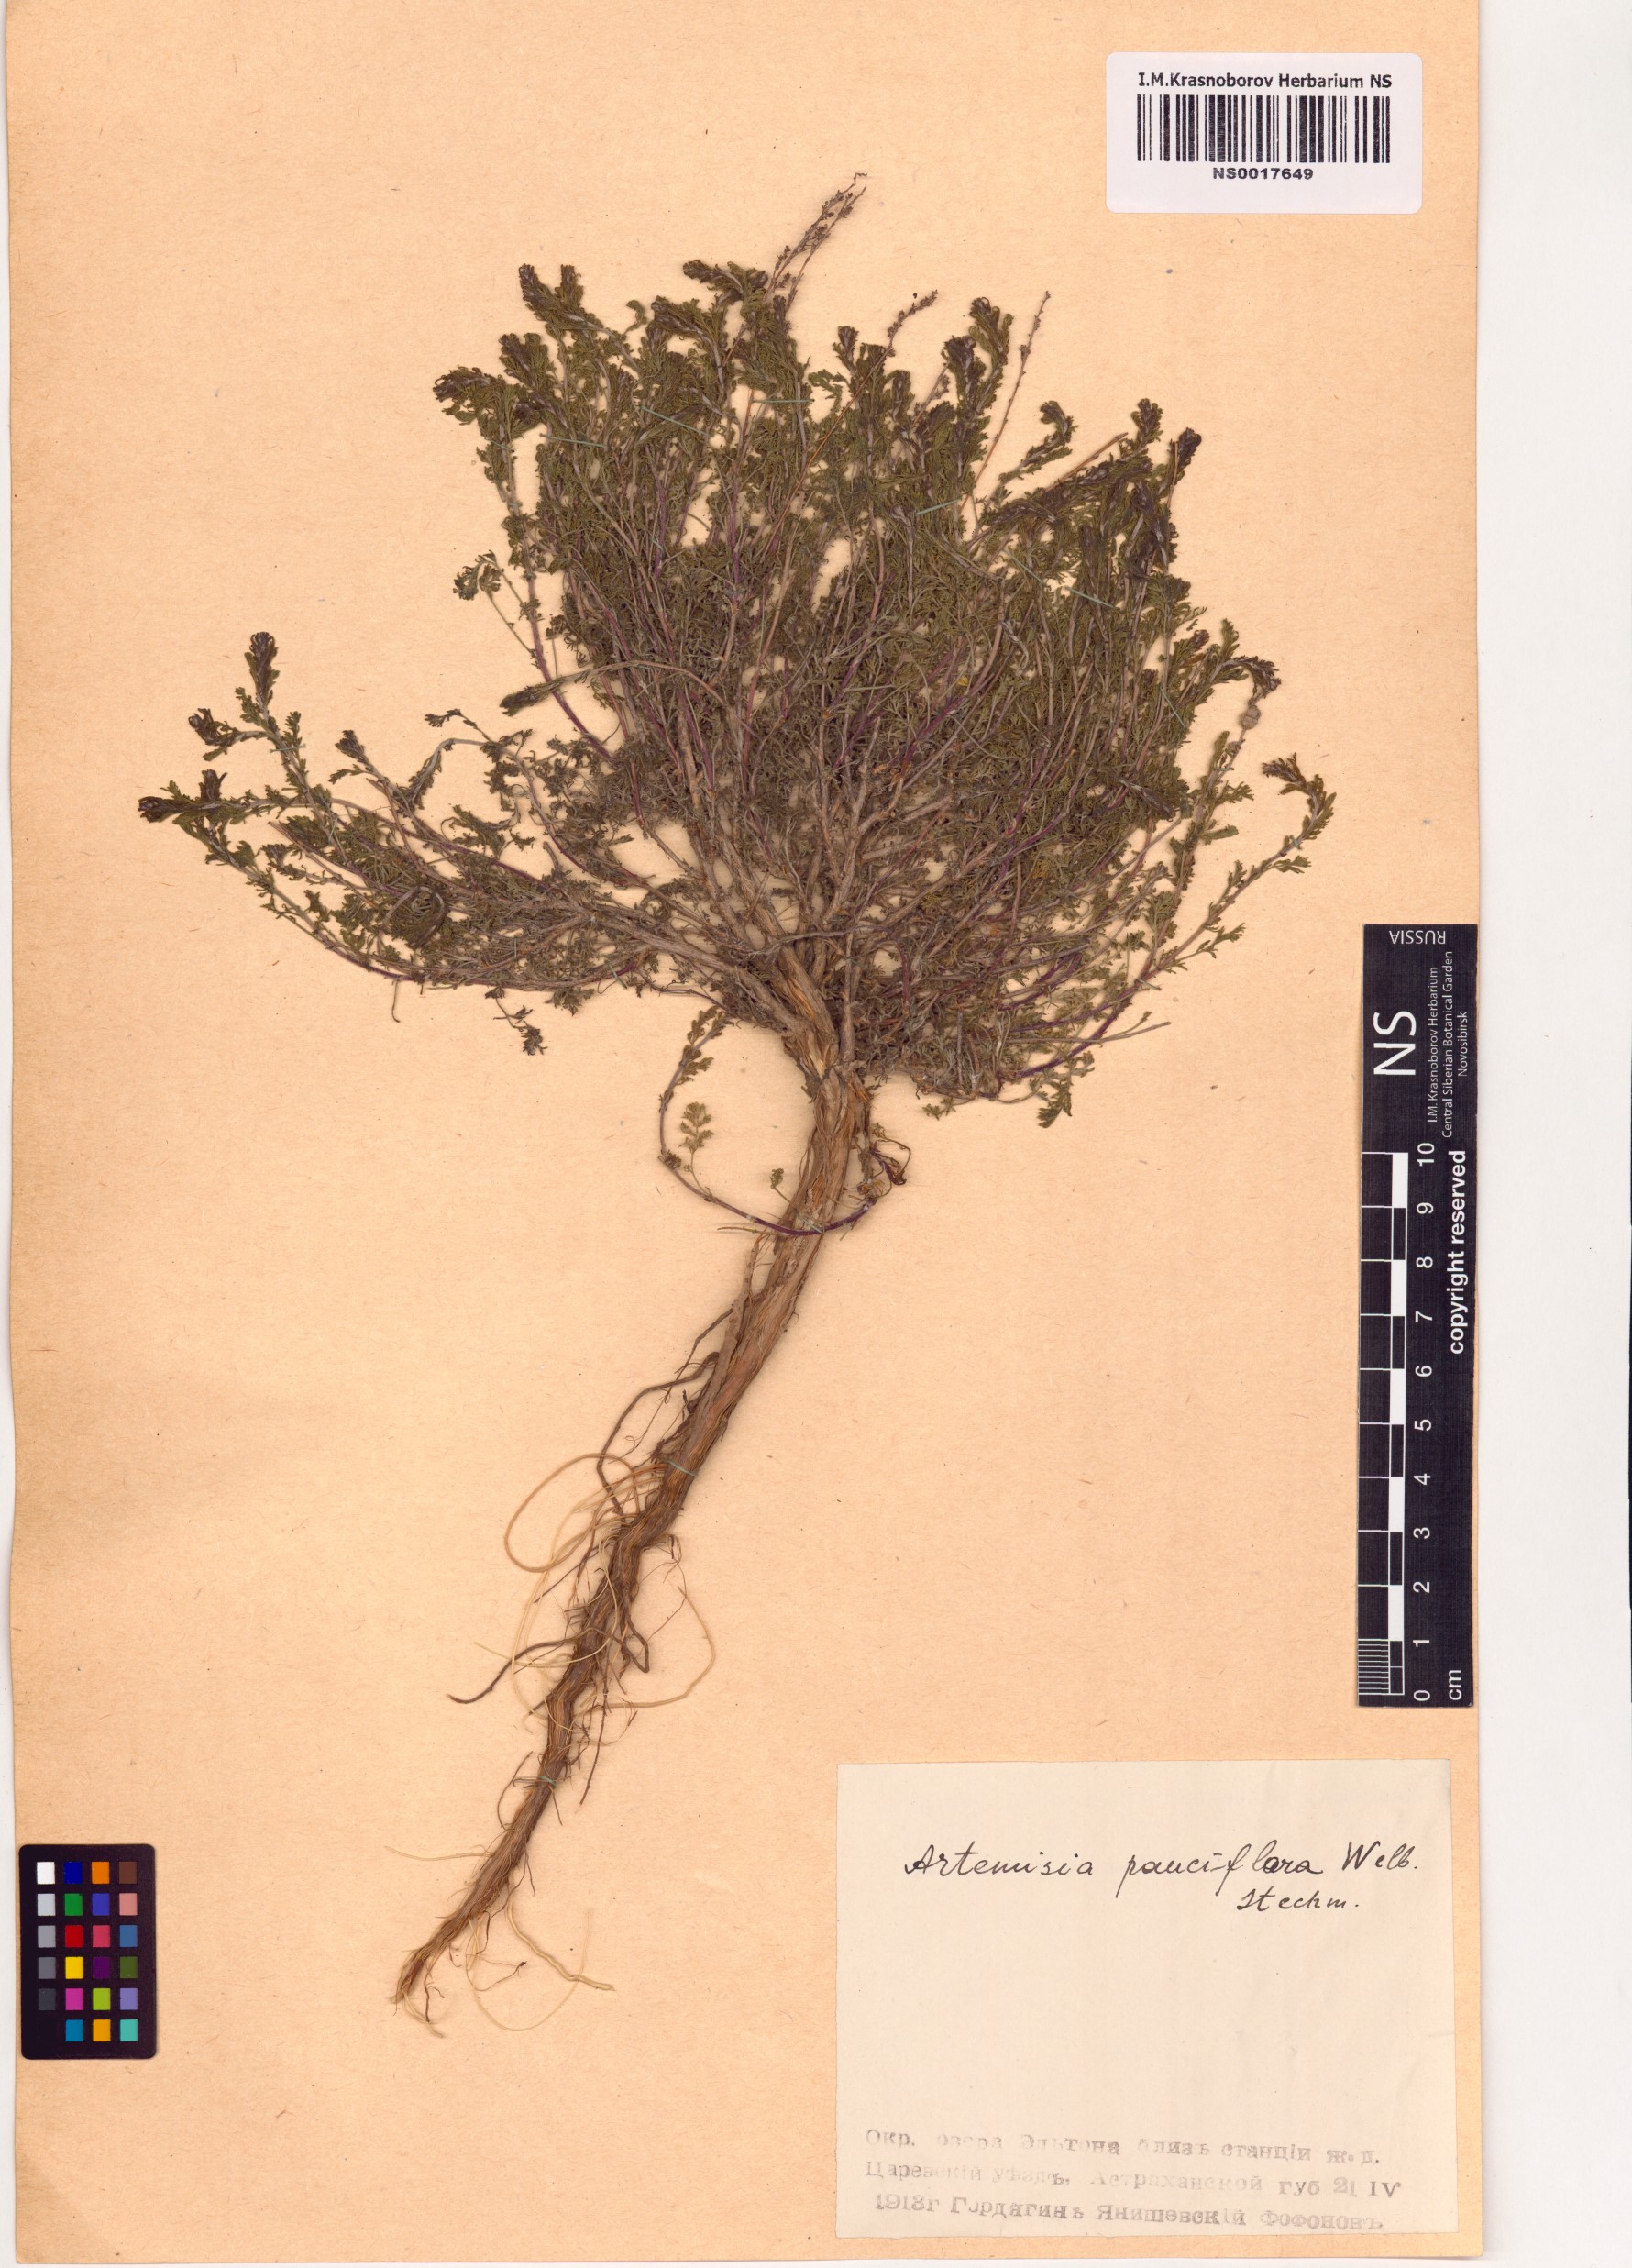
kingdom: Plantae
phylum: Tracheophyta
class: Magnoliopsida
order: Asterales
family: Asteraceae
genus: Artemisia
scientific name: Artemisia pauciflora
